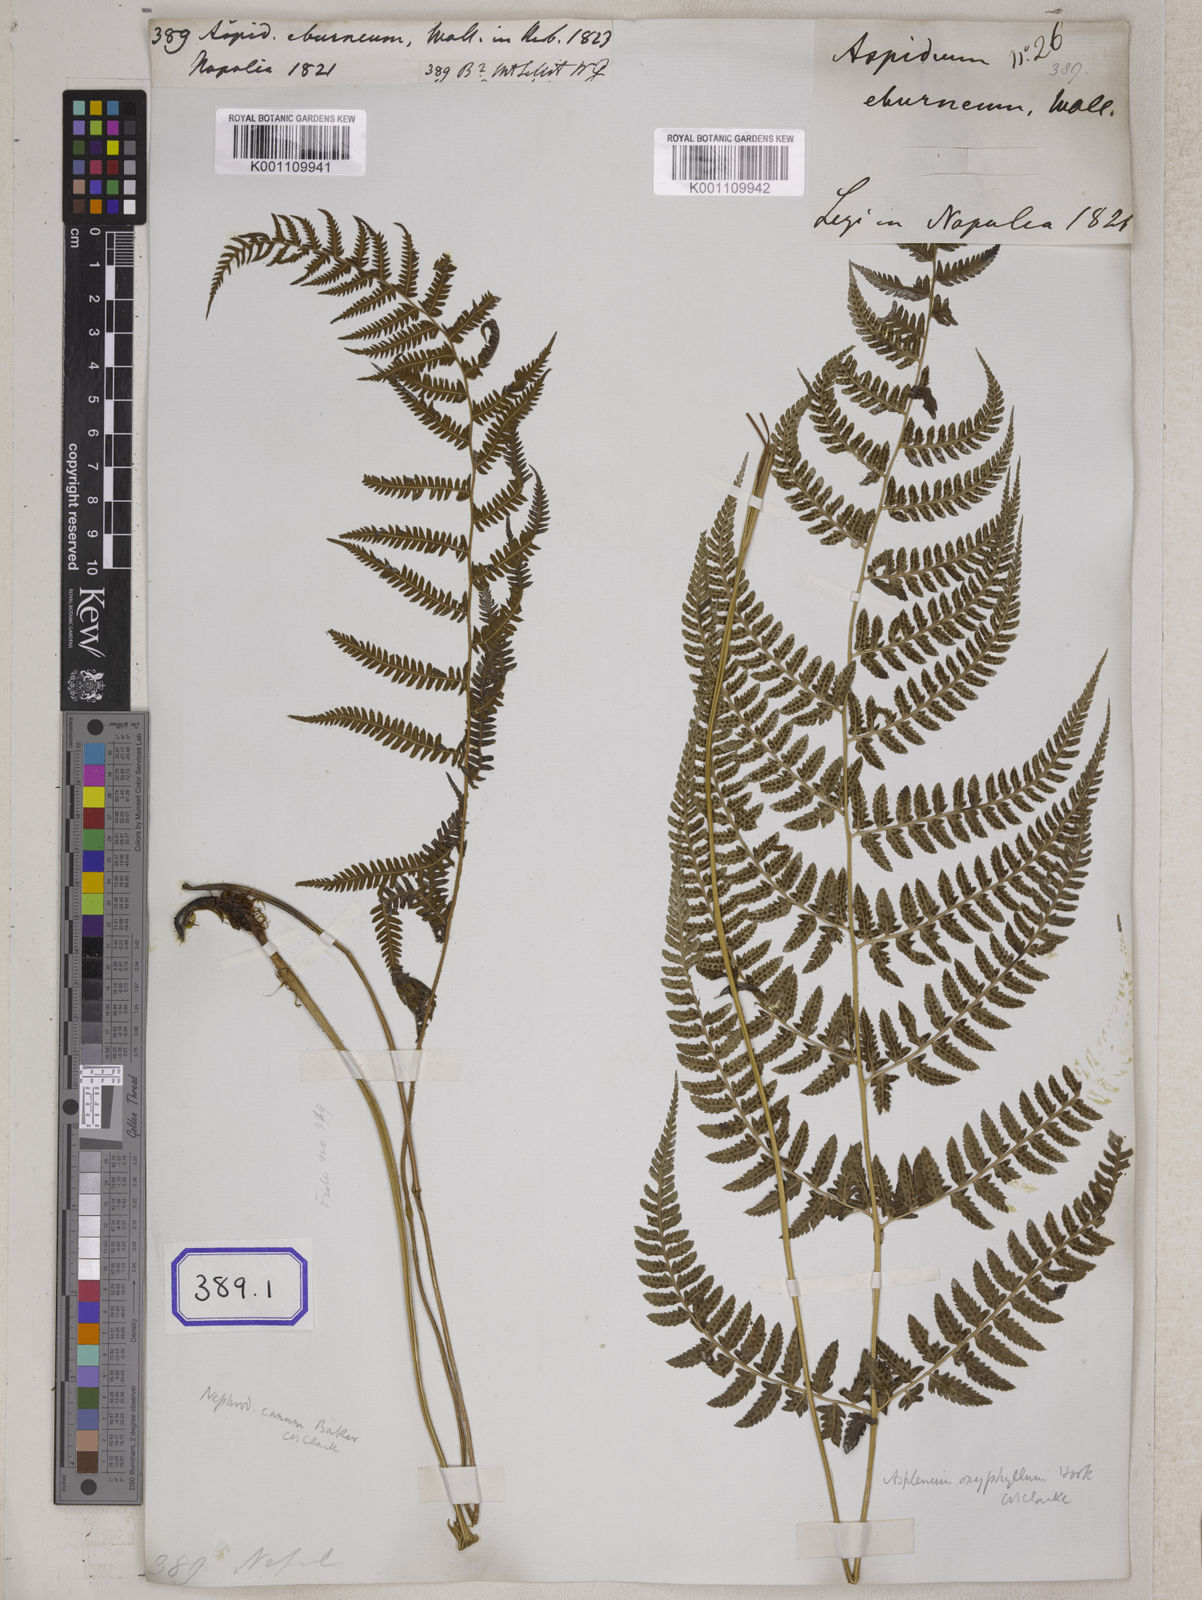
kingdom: Plantae
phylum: Tracheophyta
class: Polypodiopsida
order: Polypodiales
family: Athyriaceae
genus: Athyrium
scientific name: Athyrium eburneum
